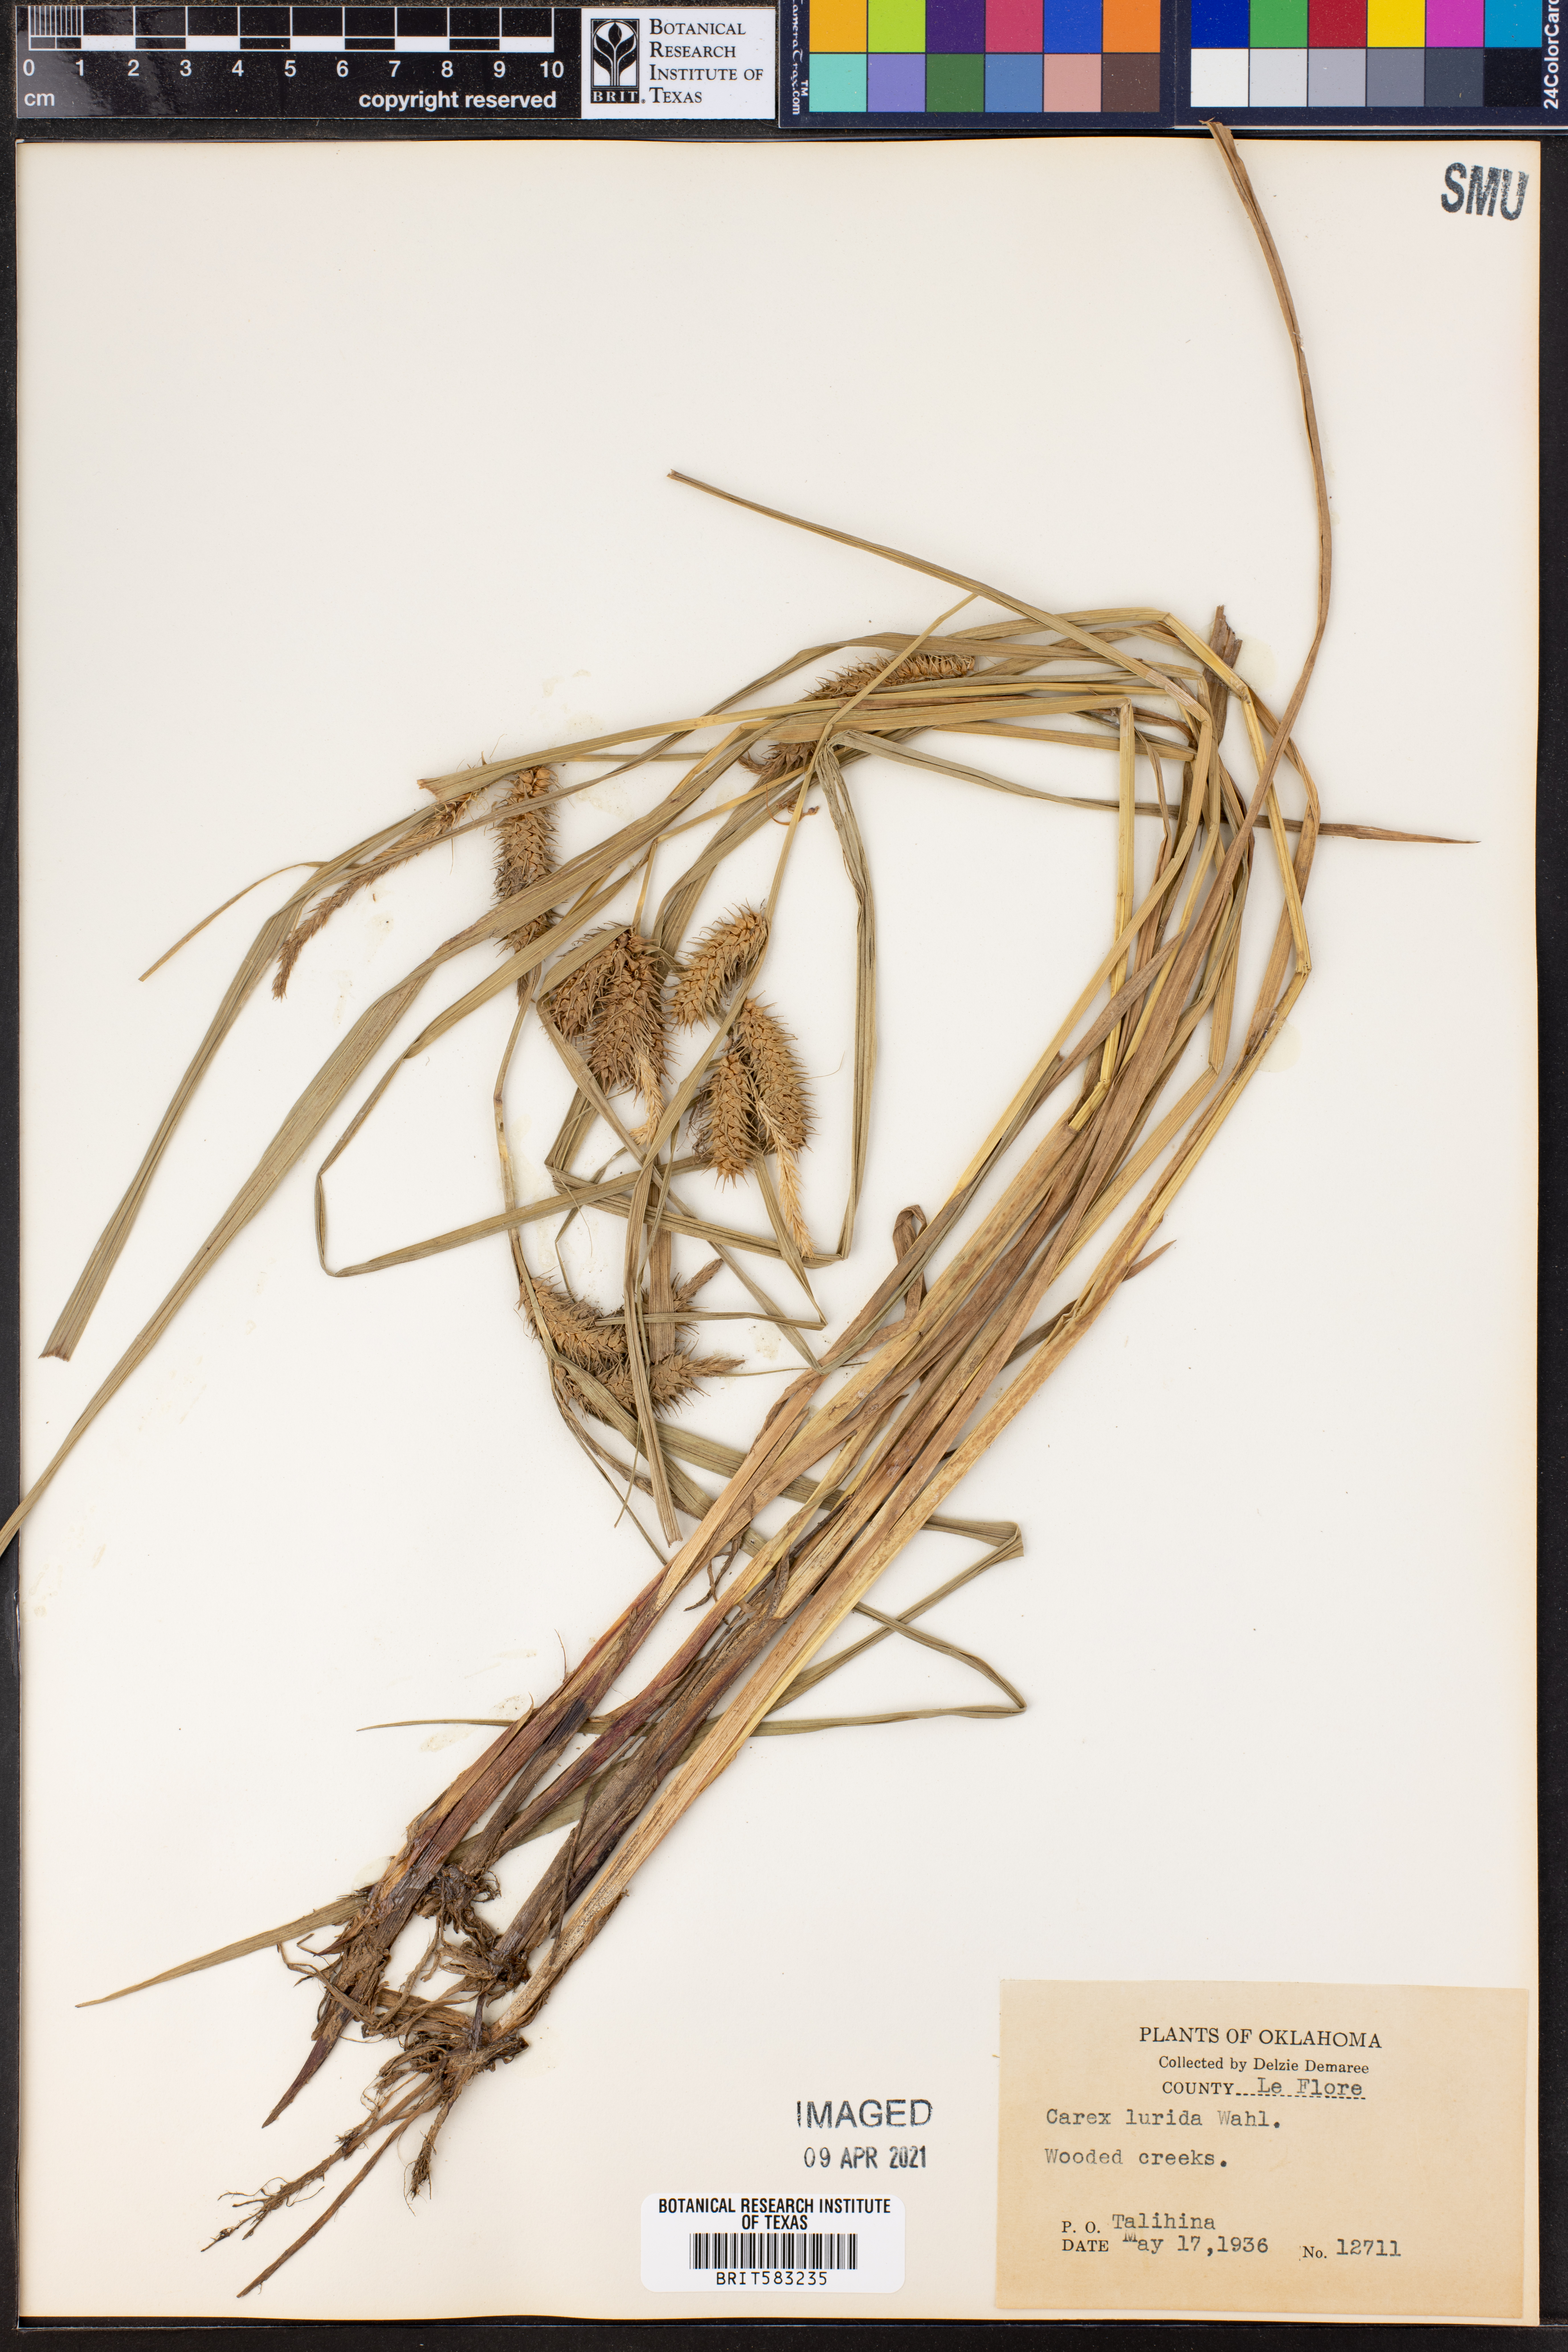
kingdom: Plantae
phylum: Tracheophyta
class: Liliopsida
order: Poales
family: Cyperaceae
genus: Carex
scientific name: Carex lurida
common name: Sallow sedge
